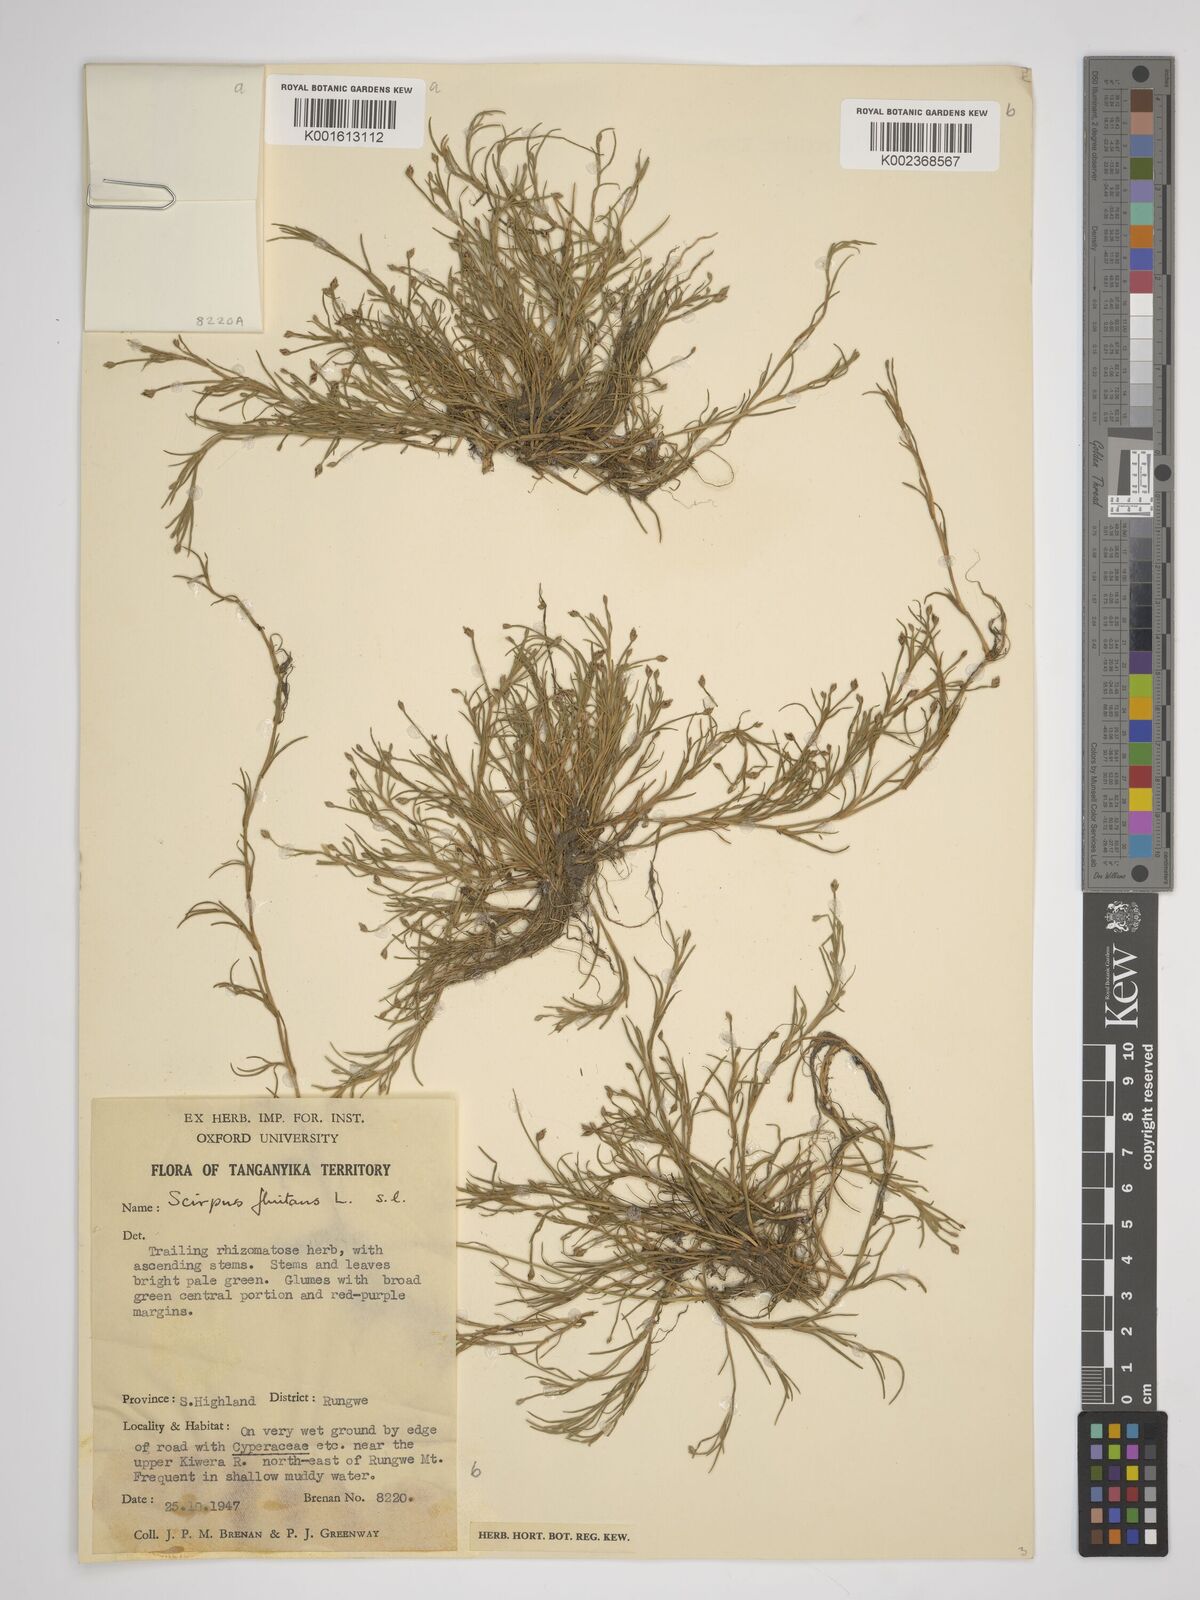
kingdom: Plantae
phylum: Tracheophyta
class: Liliopsida
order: Poales
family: Cyperaceae
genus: Isolepis
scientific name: Isolepis sepulcralis
